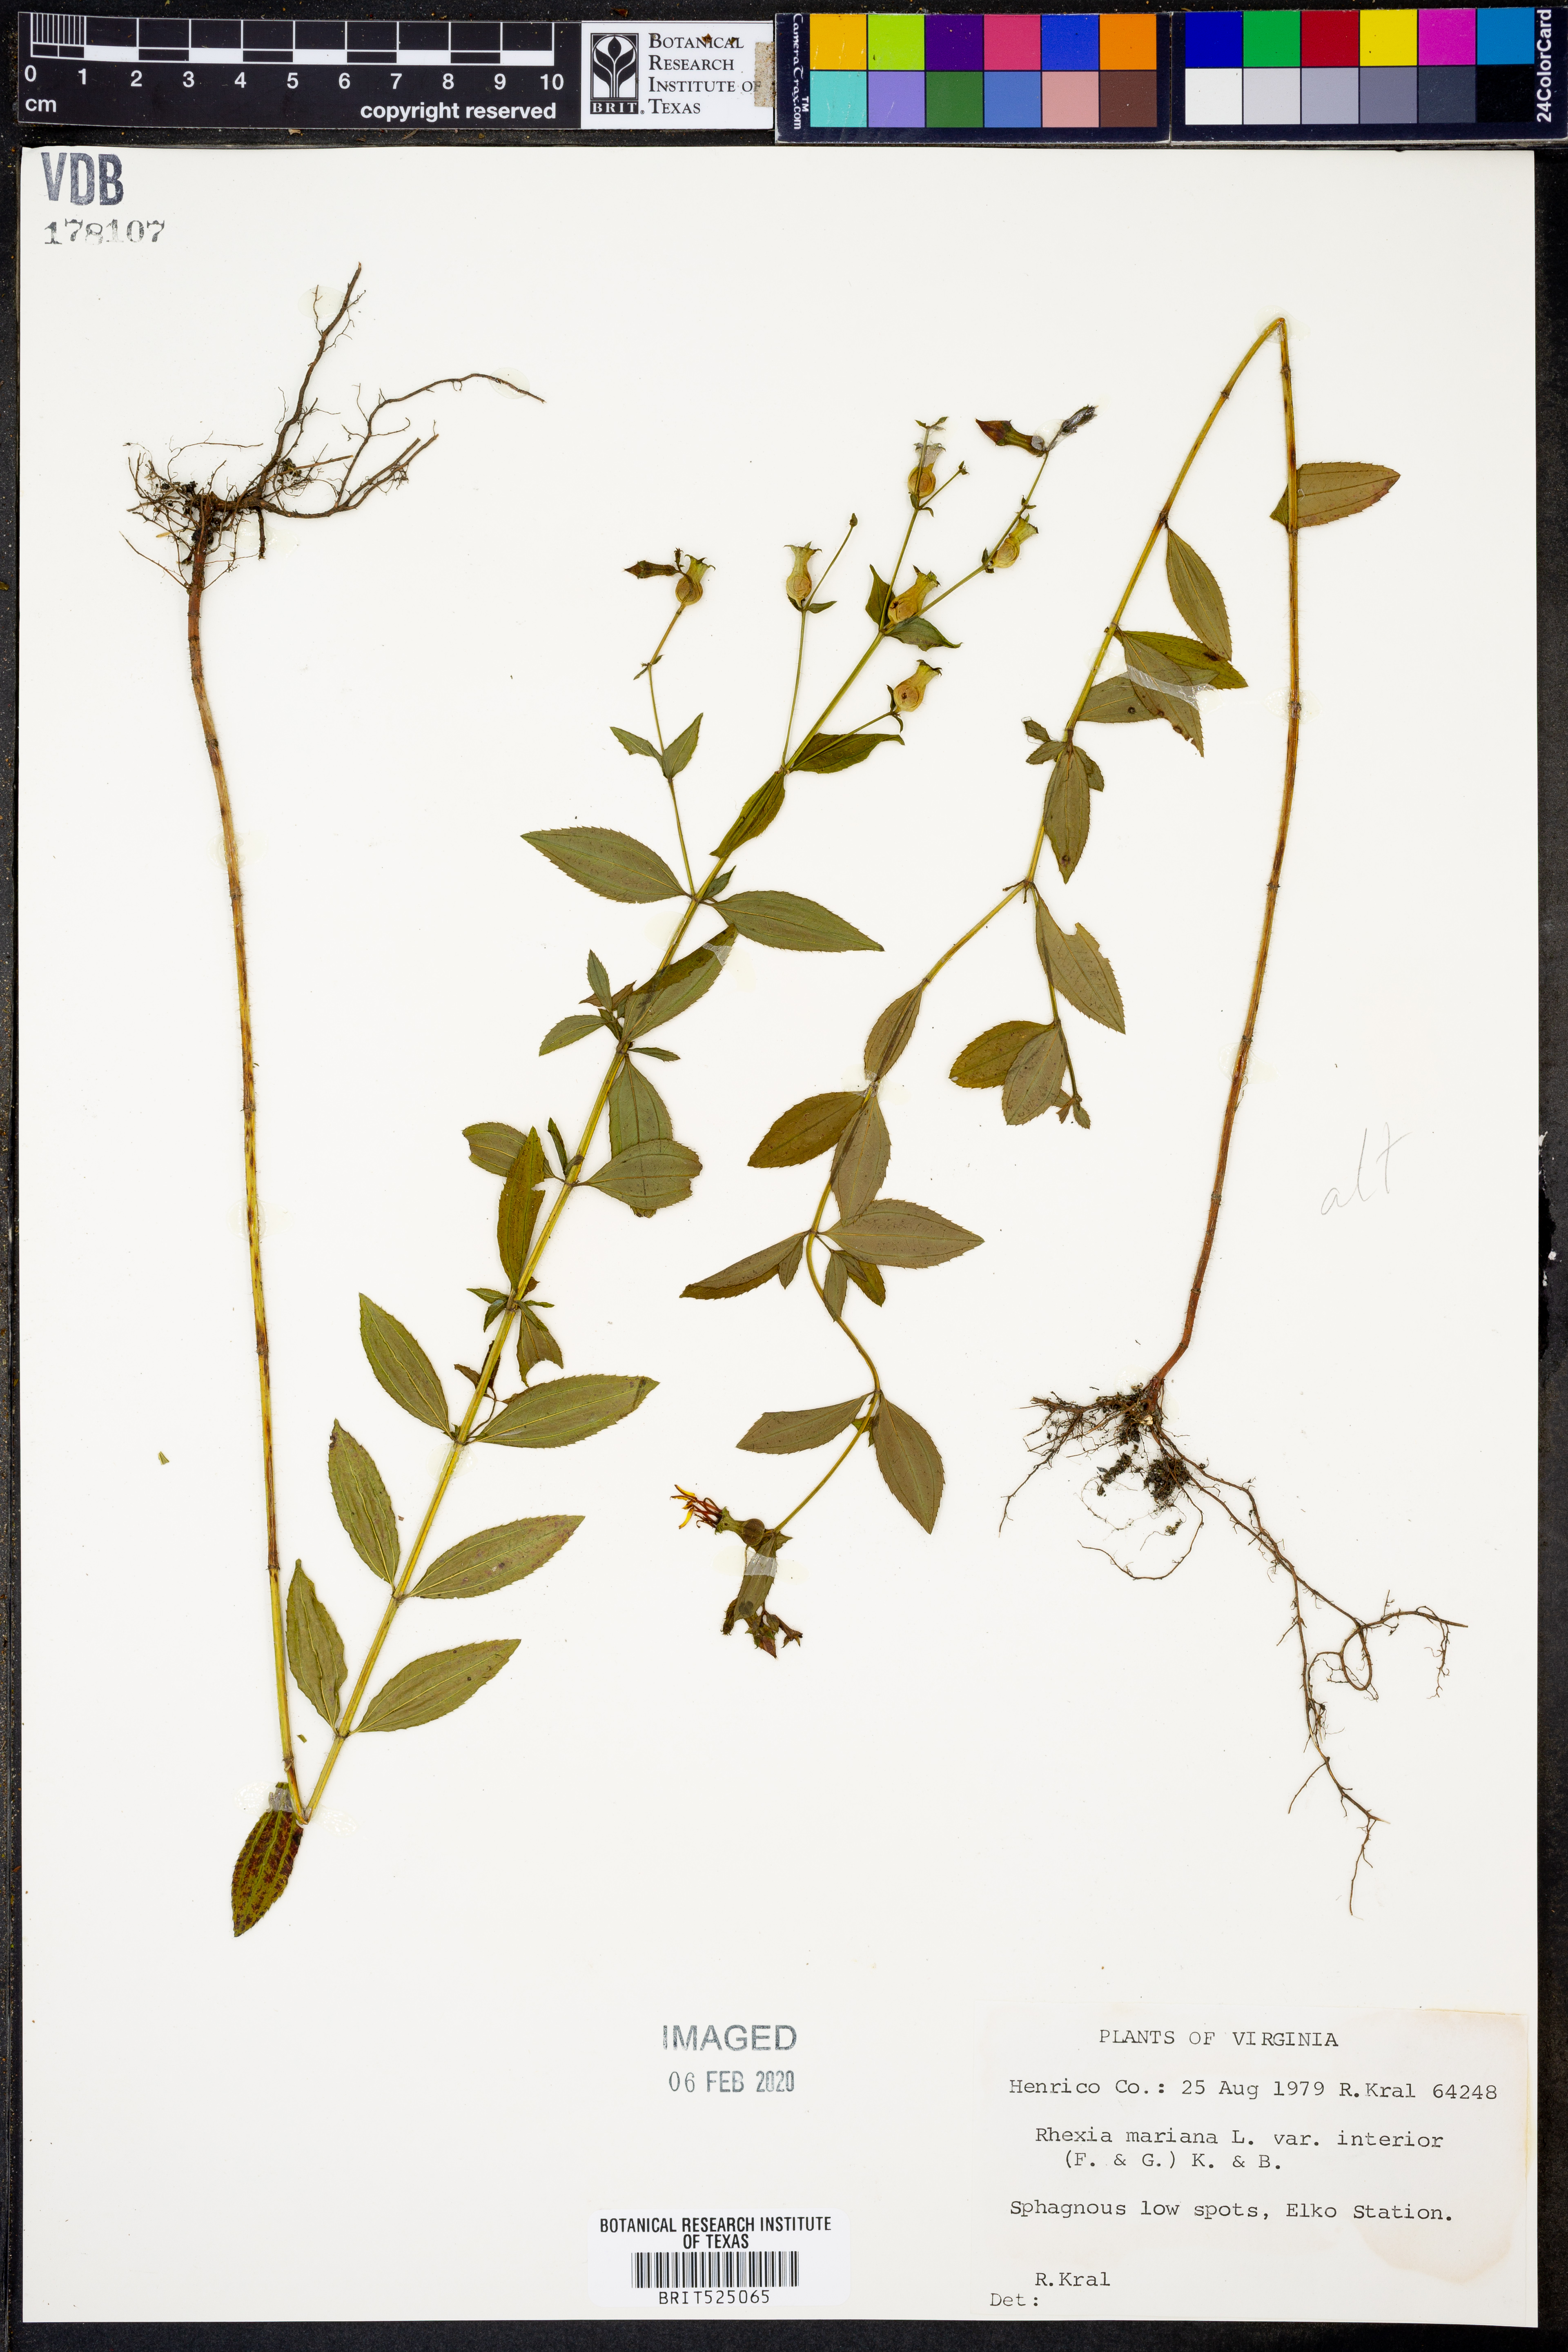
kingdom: Plantae
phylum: Tracheophyta
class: Magnoliopsida
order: Myrtales
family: Melastomataceae
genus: Rhexia
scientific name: Rhexia interior
